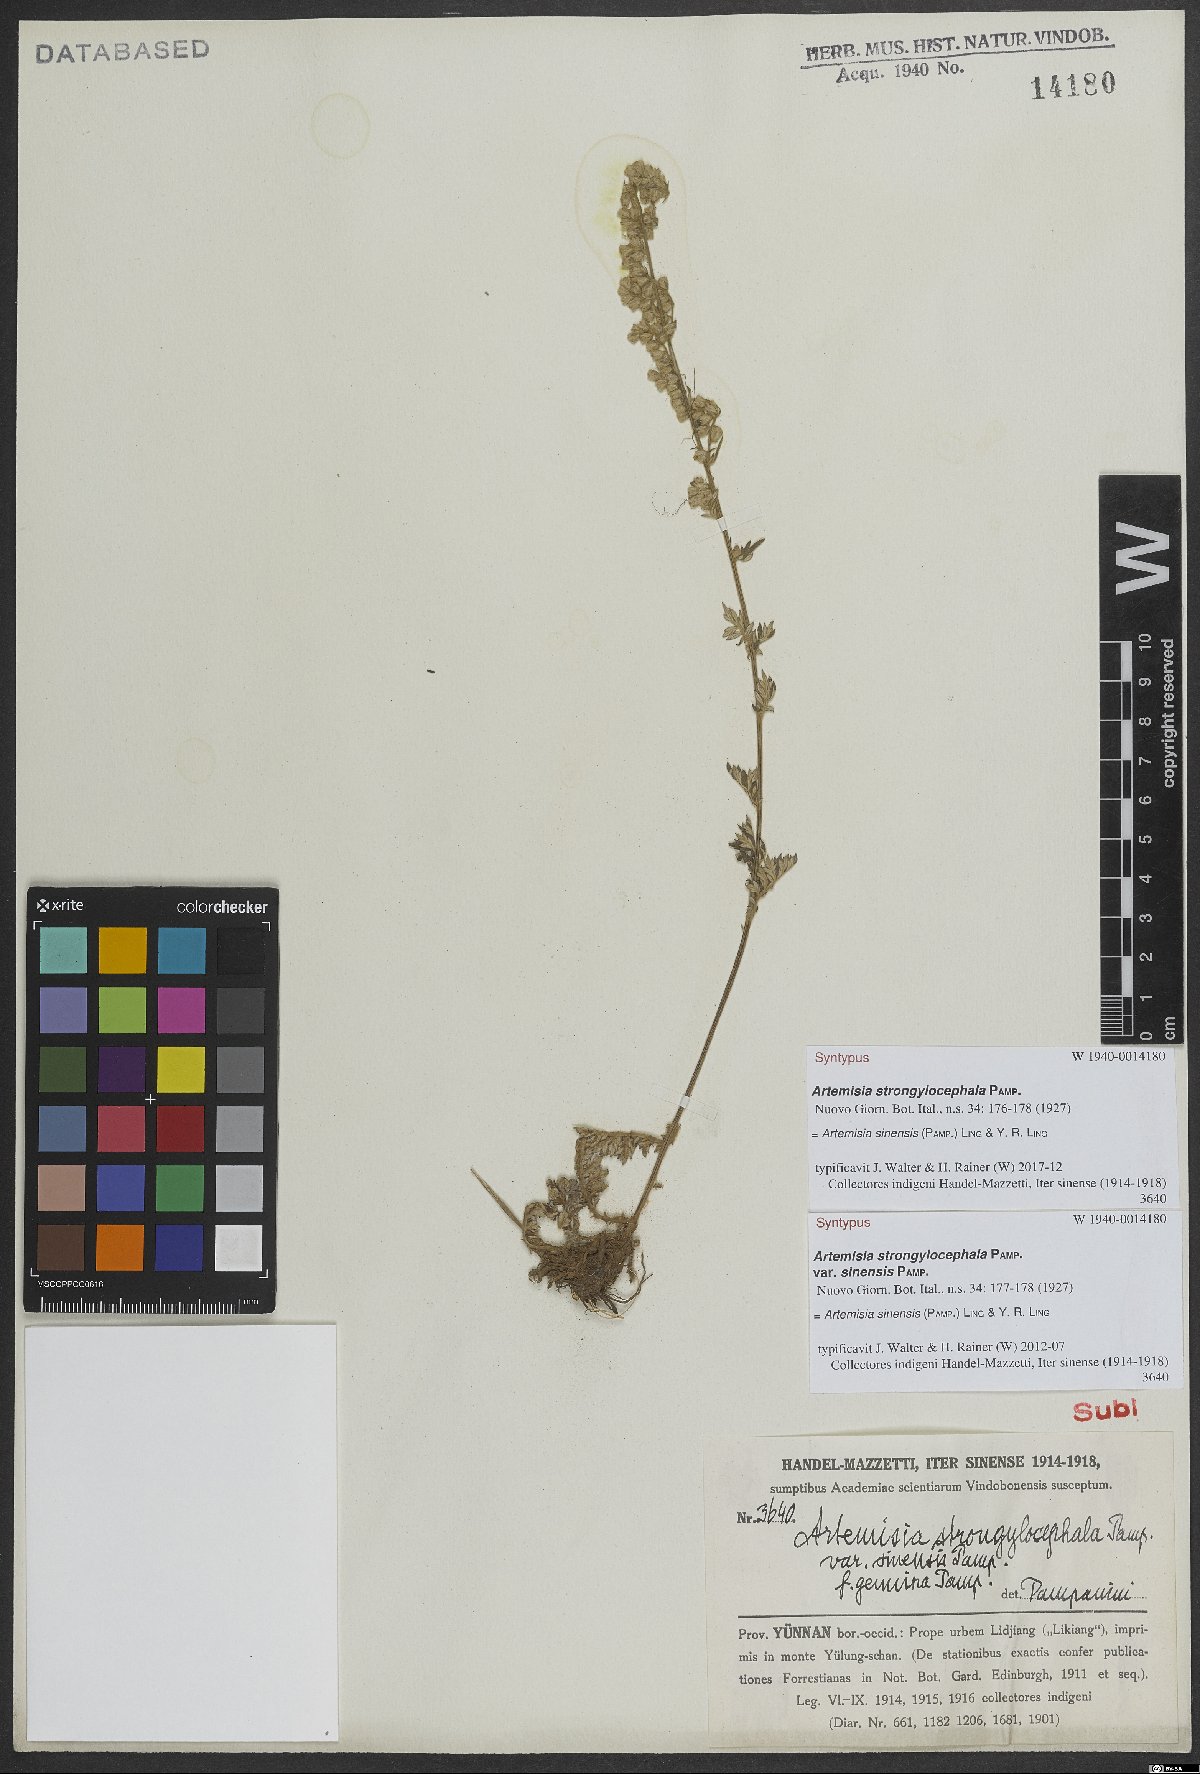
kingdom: Plantae
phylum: Tracheophyta
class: Magnoliopsida
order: Asterales
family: Asteraceae
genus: Artemisia
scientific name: Artemisia sinensis
